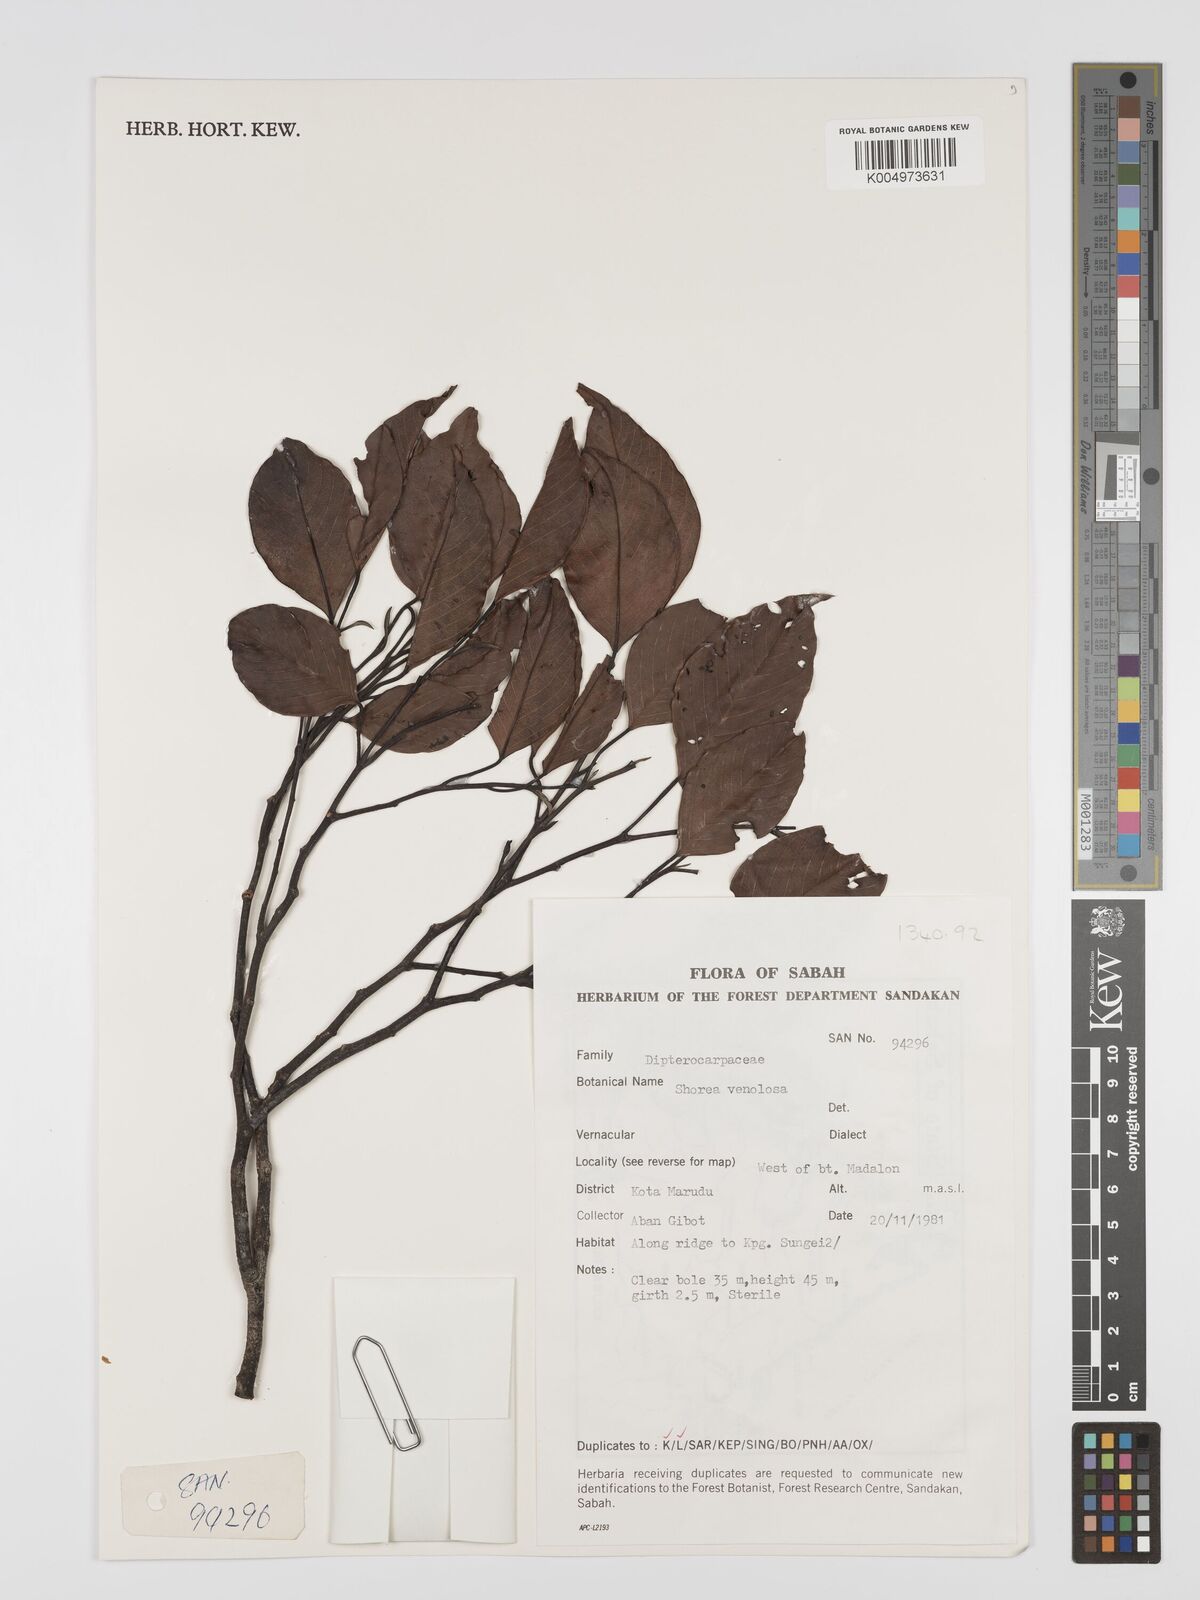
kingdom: Plantae
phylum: Tracheophyta
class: Magnoliopsida
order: Malvales
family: Dipterocarpaceae
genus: Shorea
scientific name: Shorea venulosa
